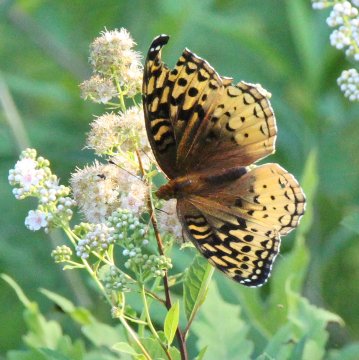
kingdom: Animalia
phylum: Arthropoda
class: Insecta
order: Lepidoptera
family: Nymphalidae
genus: Speyeria
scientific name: Speyeria cybele
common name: Great Spangled Fritillary
